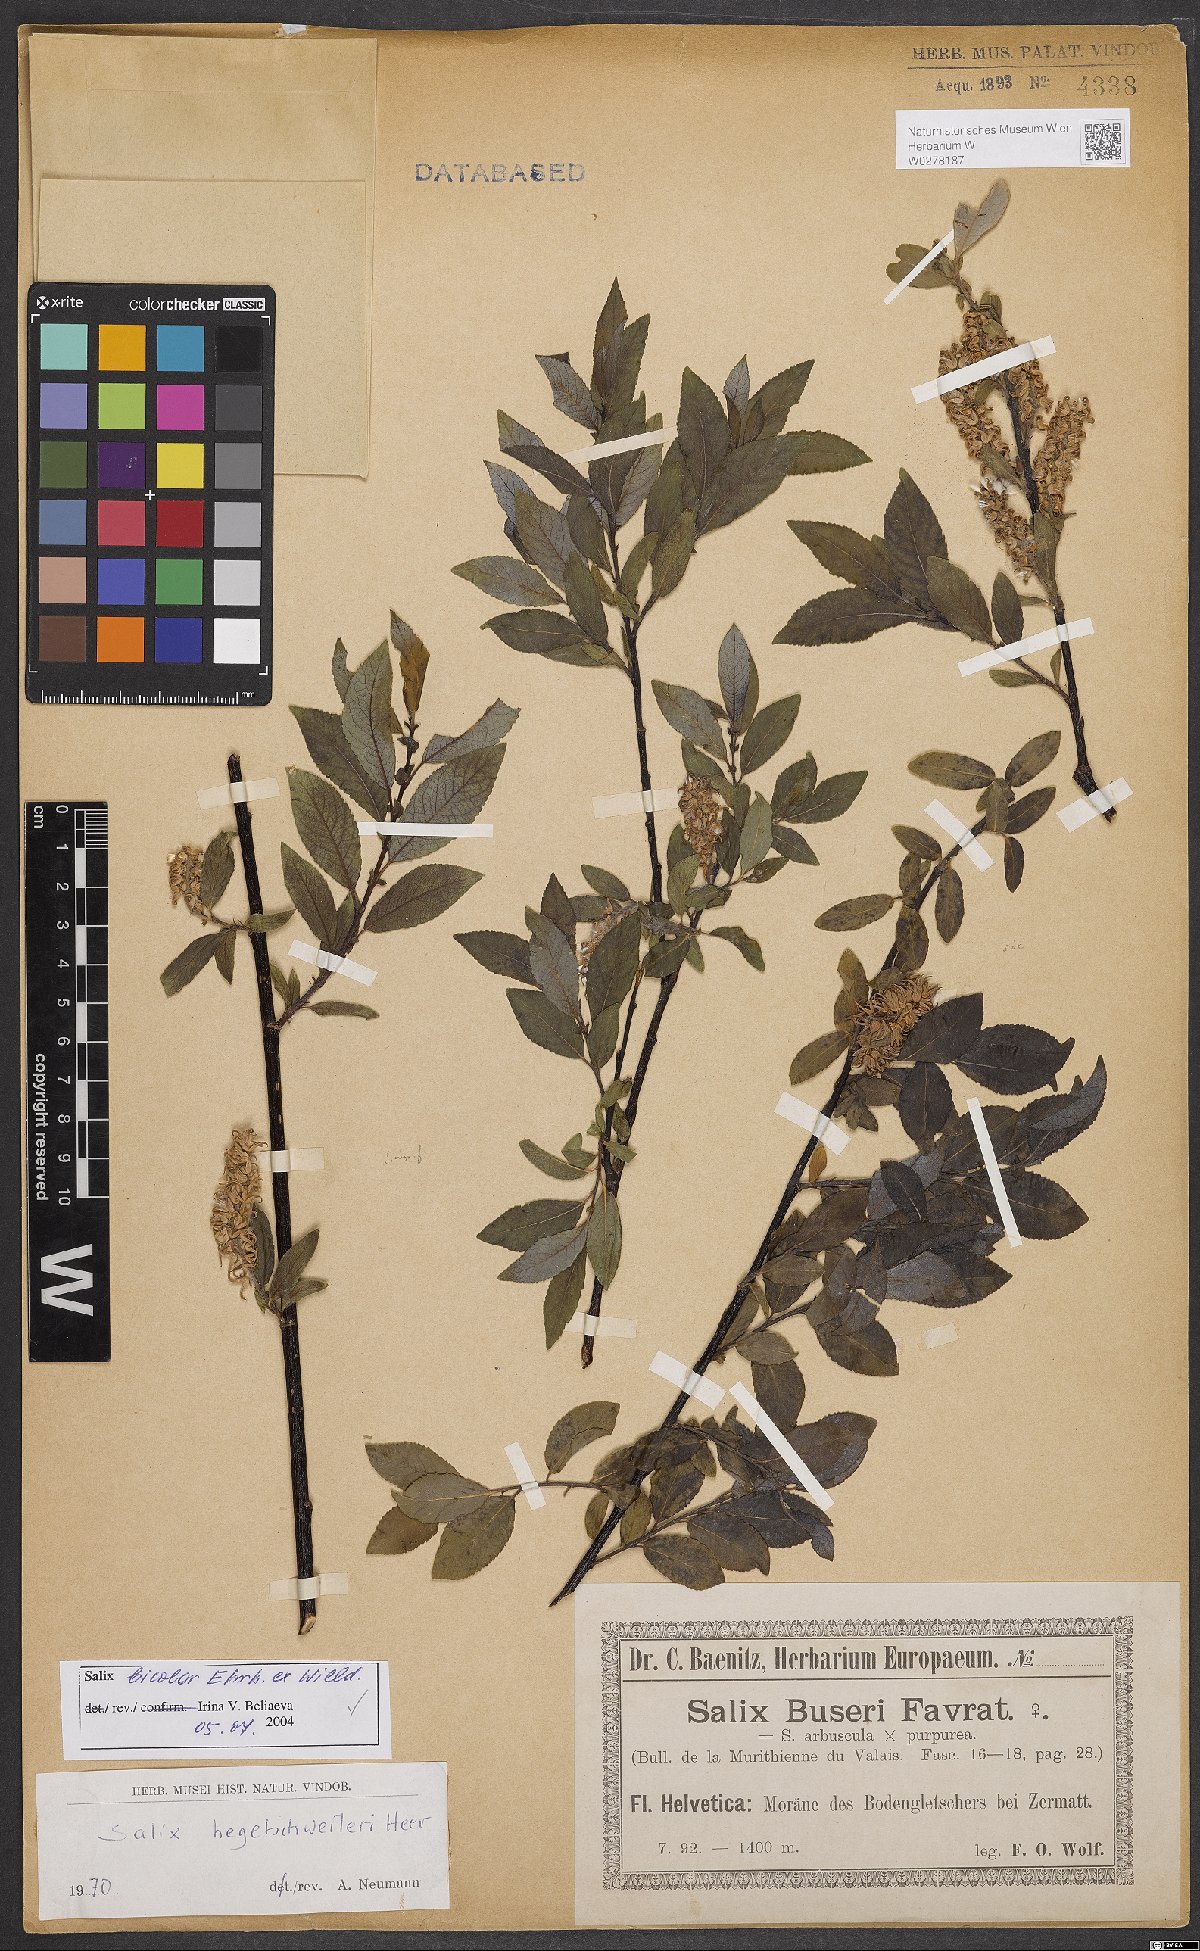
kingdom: Plantae
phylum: Tracheophyta
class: Magnoliopsida
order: Malpighiales
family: Salicaceae
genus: Salix
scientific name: Salix bicolor
